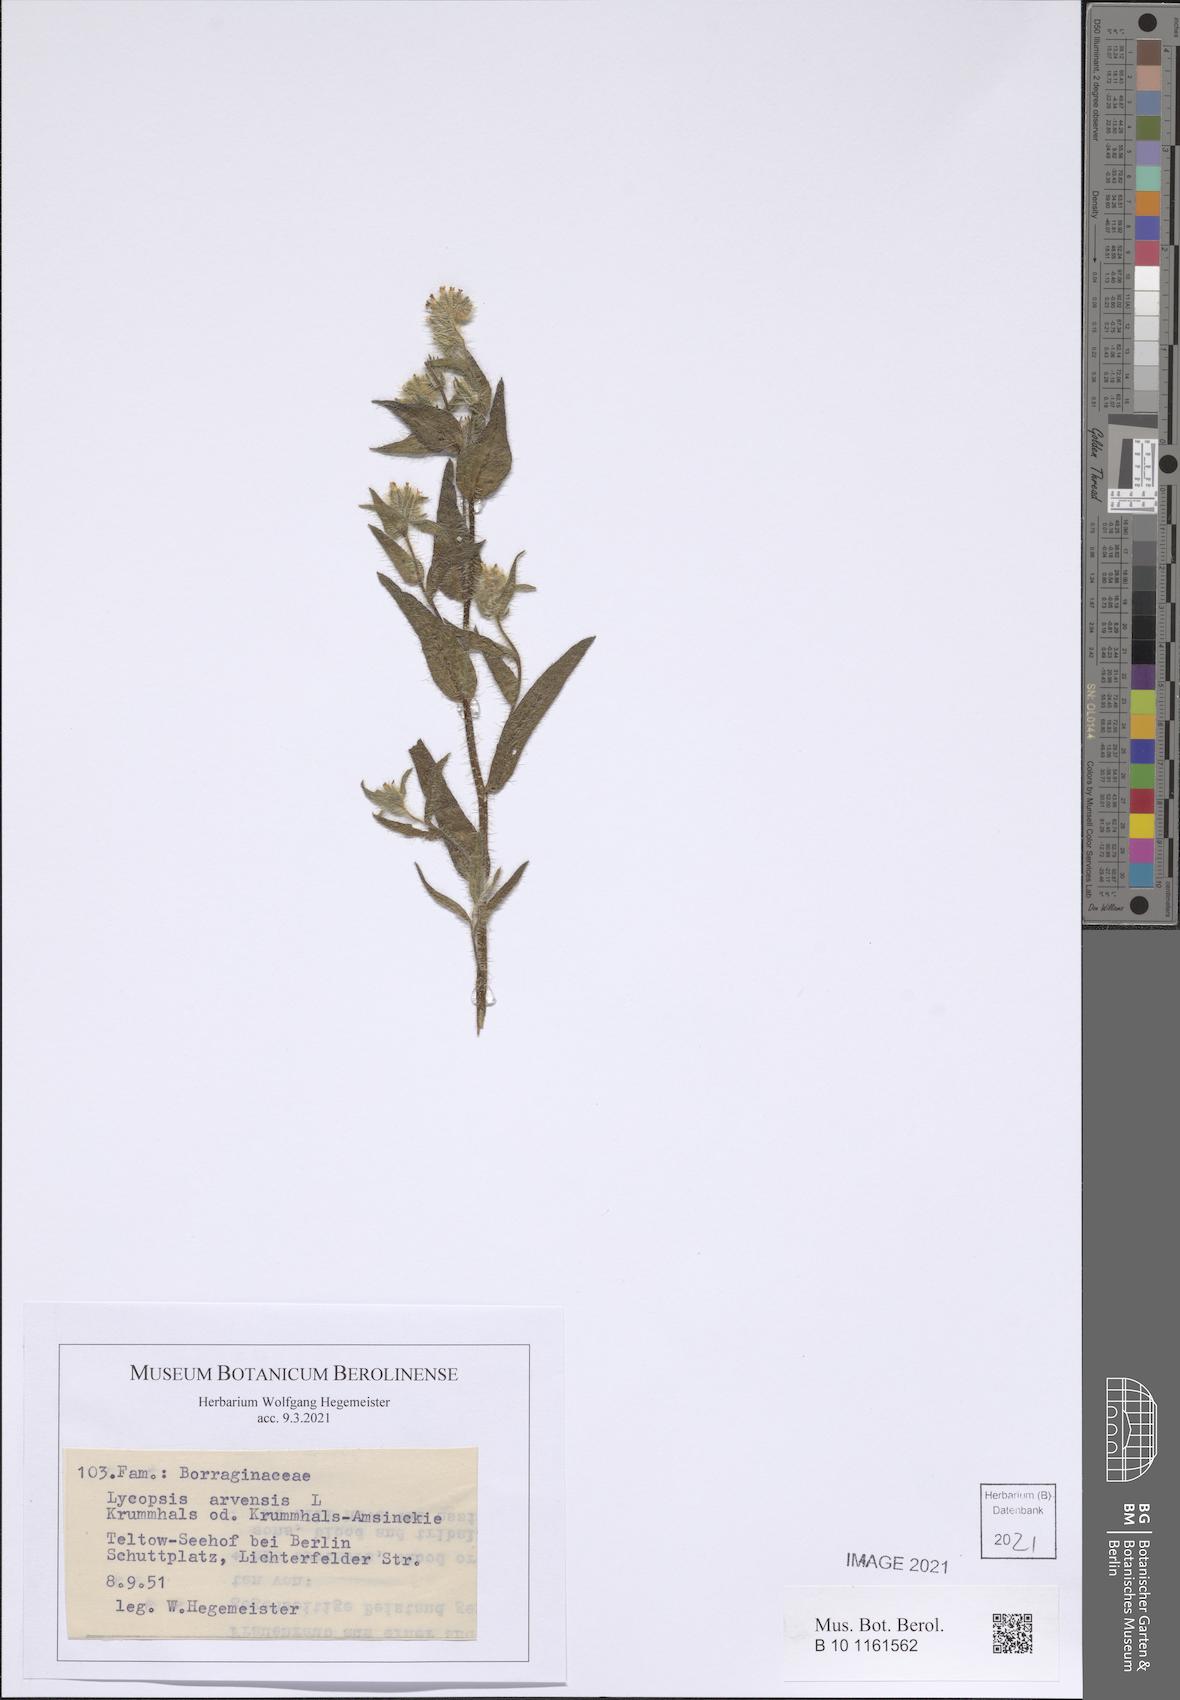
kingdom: Plantae
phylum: Tracheophyta
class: Magnoliopsida
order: Boraginales
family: Boraginaceae
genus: Lycopsis
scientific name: Lycopsis arvensis
